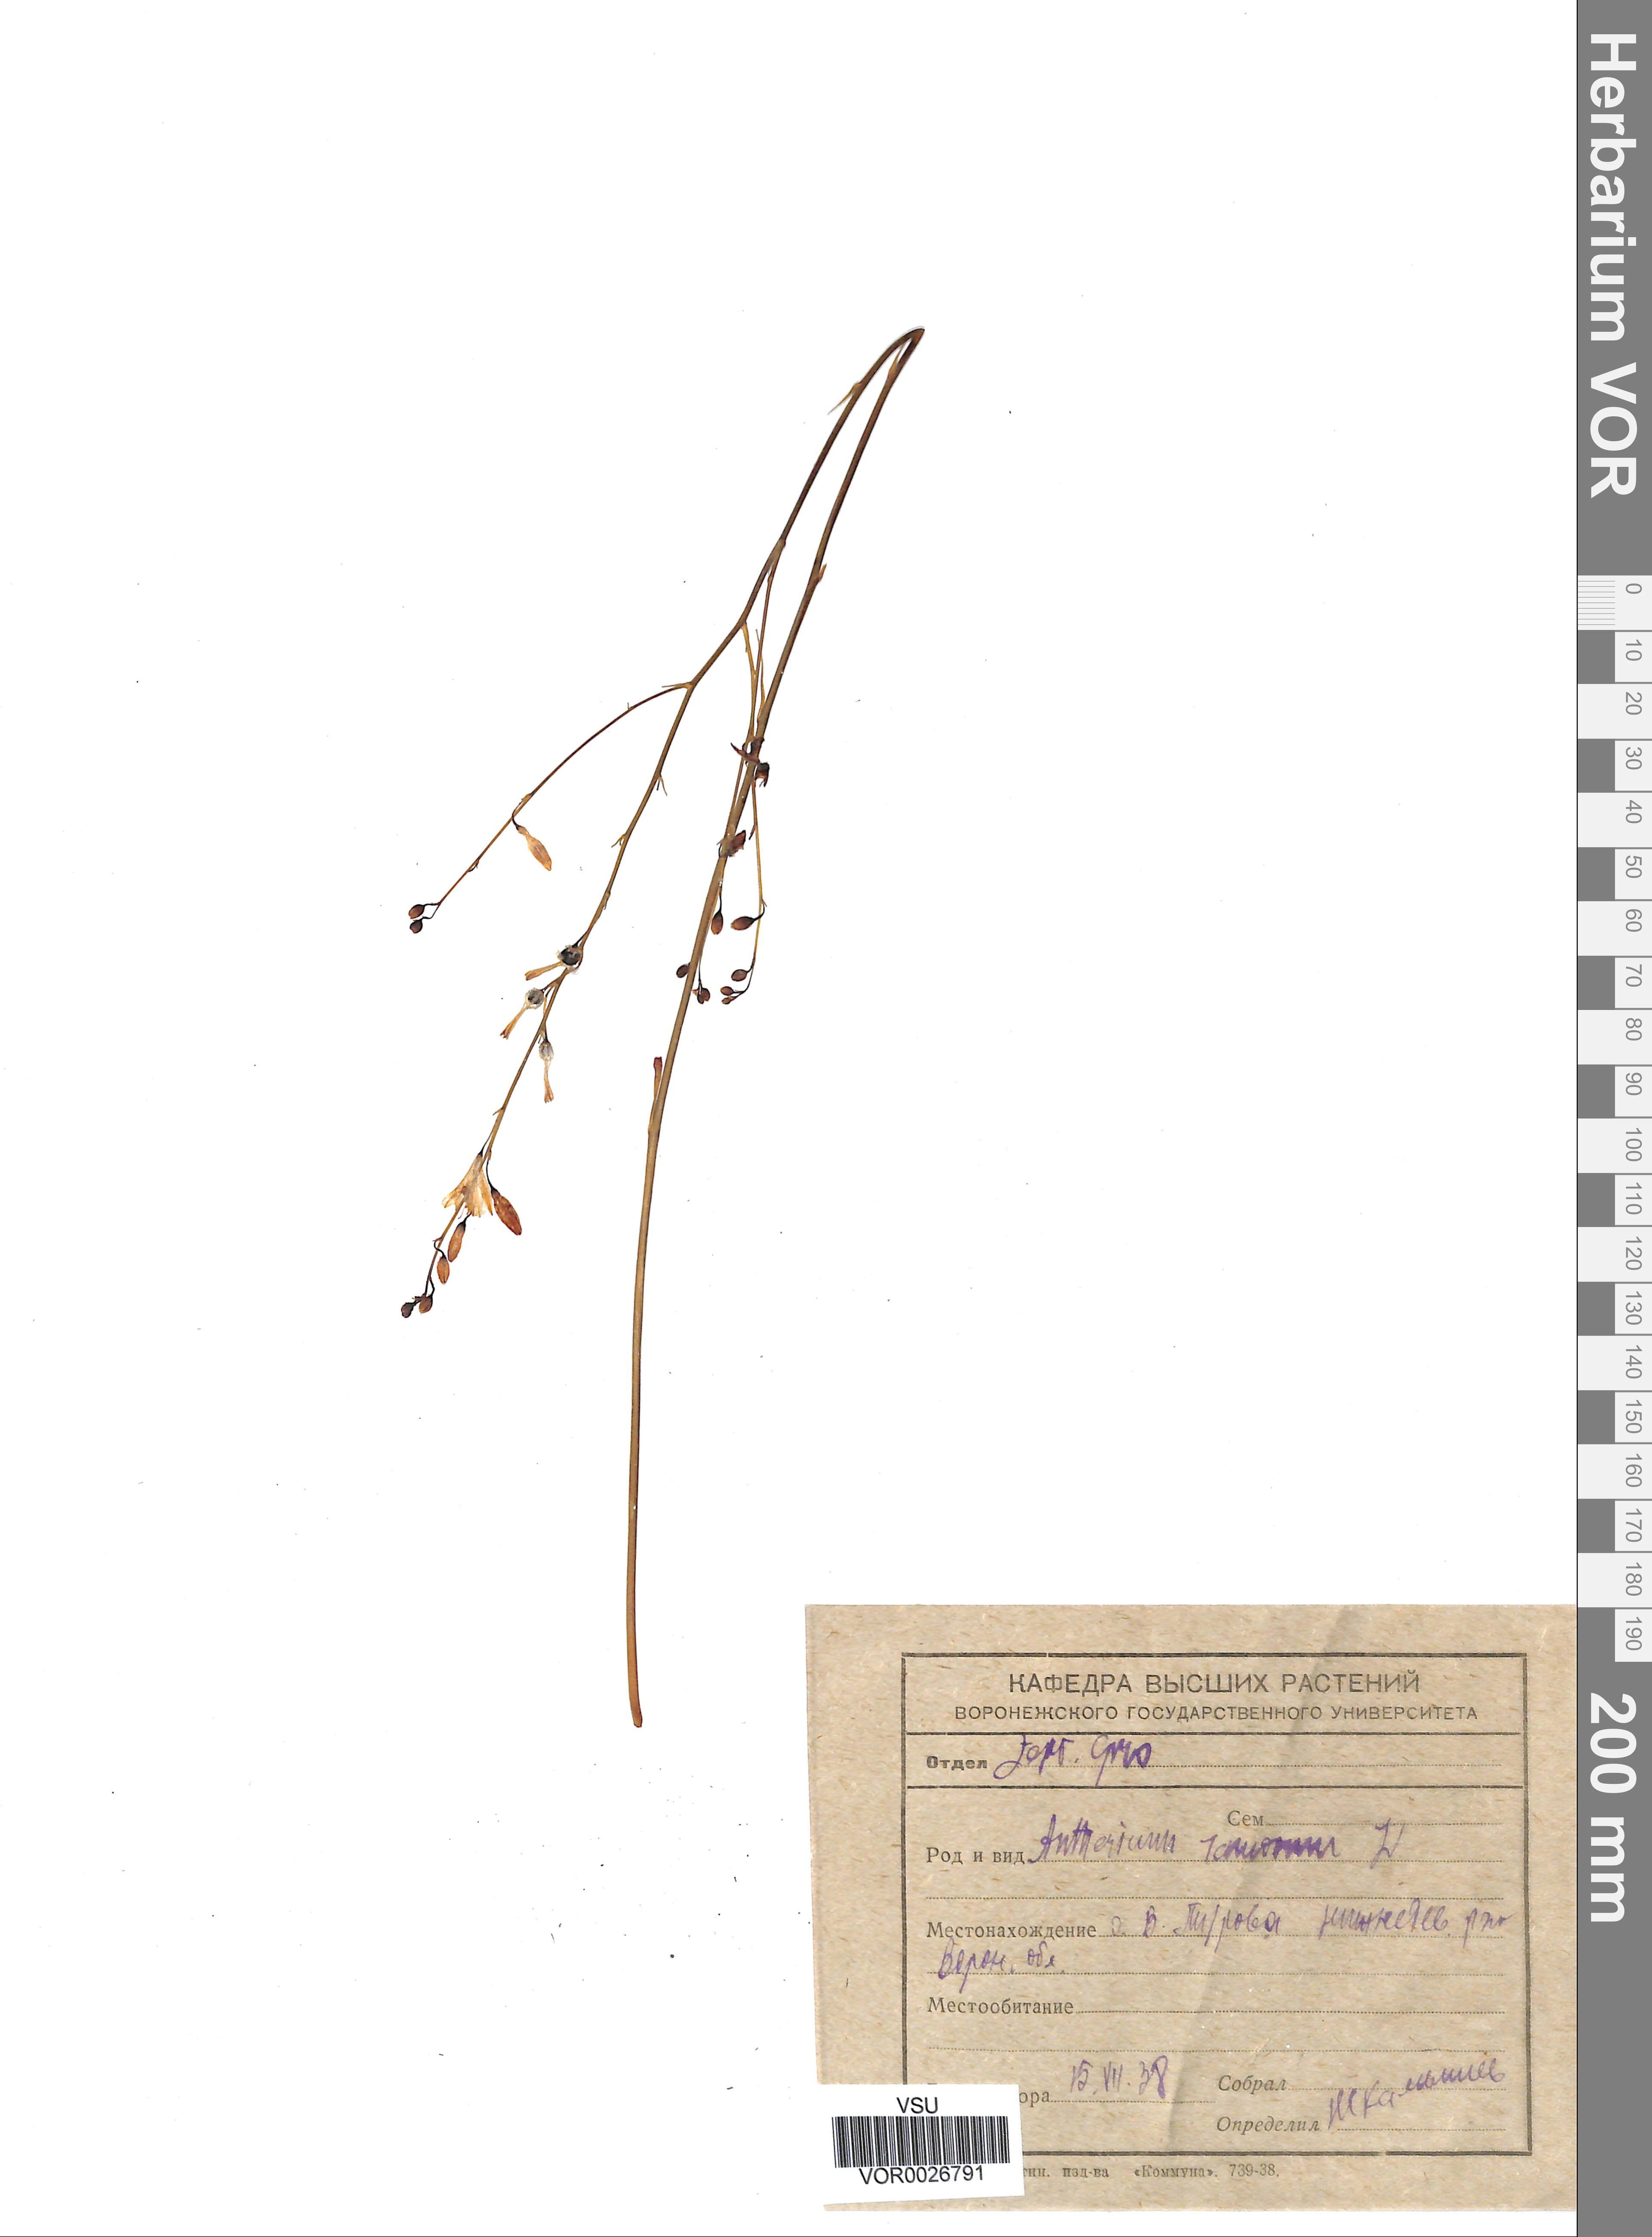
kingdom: Plantae
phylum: Tracheophyta
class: Liliopsida
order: Asparagales
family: Asparagaceae
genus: Anthericum
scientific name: Anthericum ramosum
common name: Branched st. bernard's-lily
